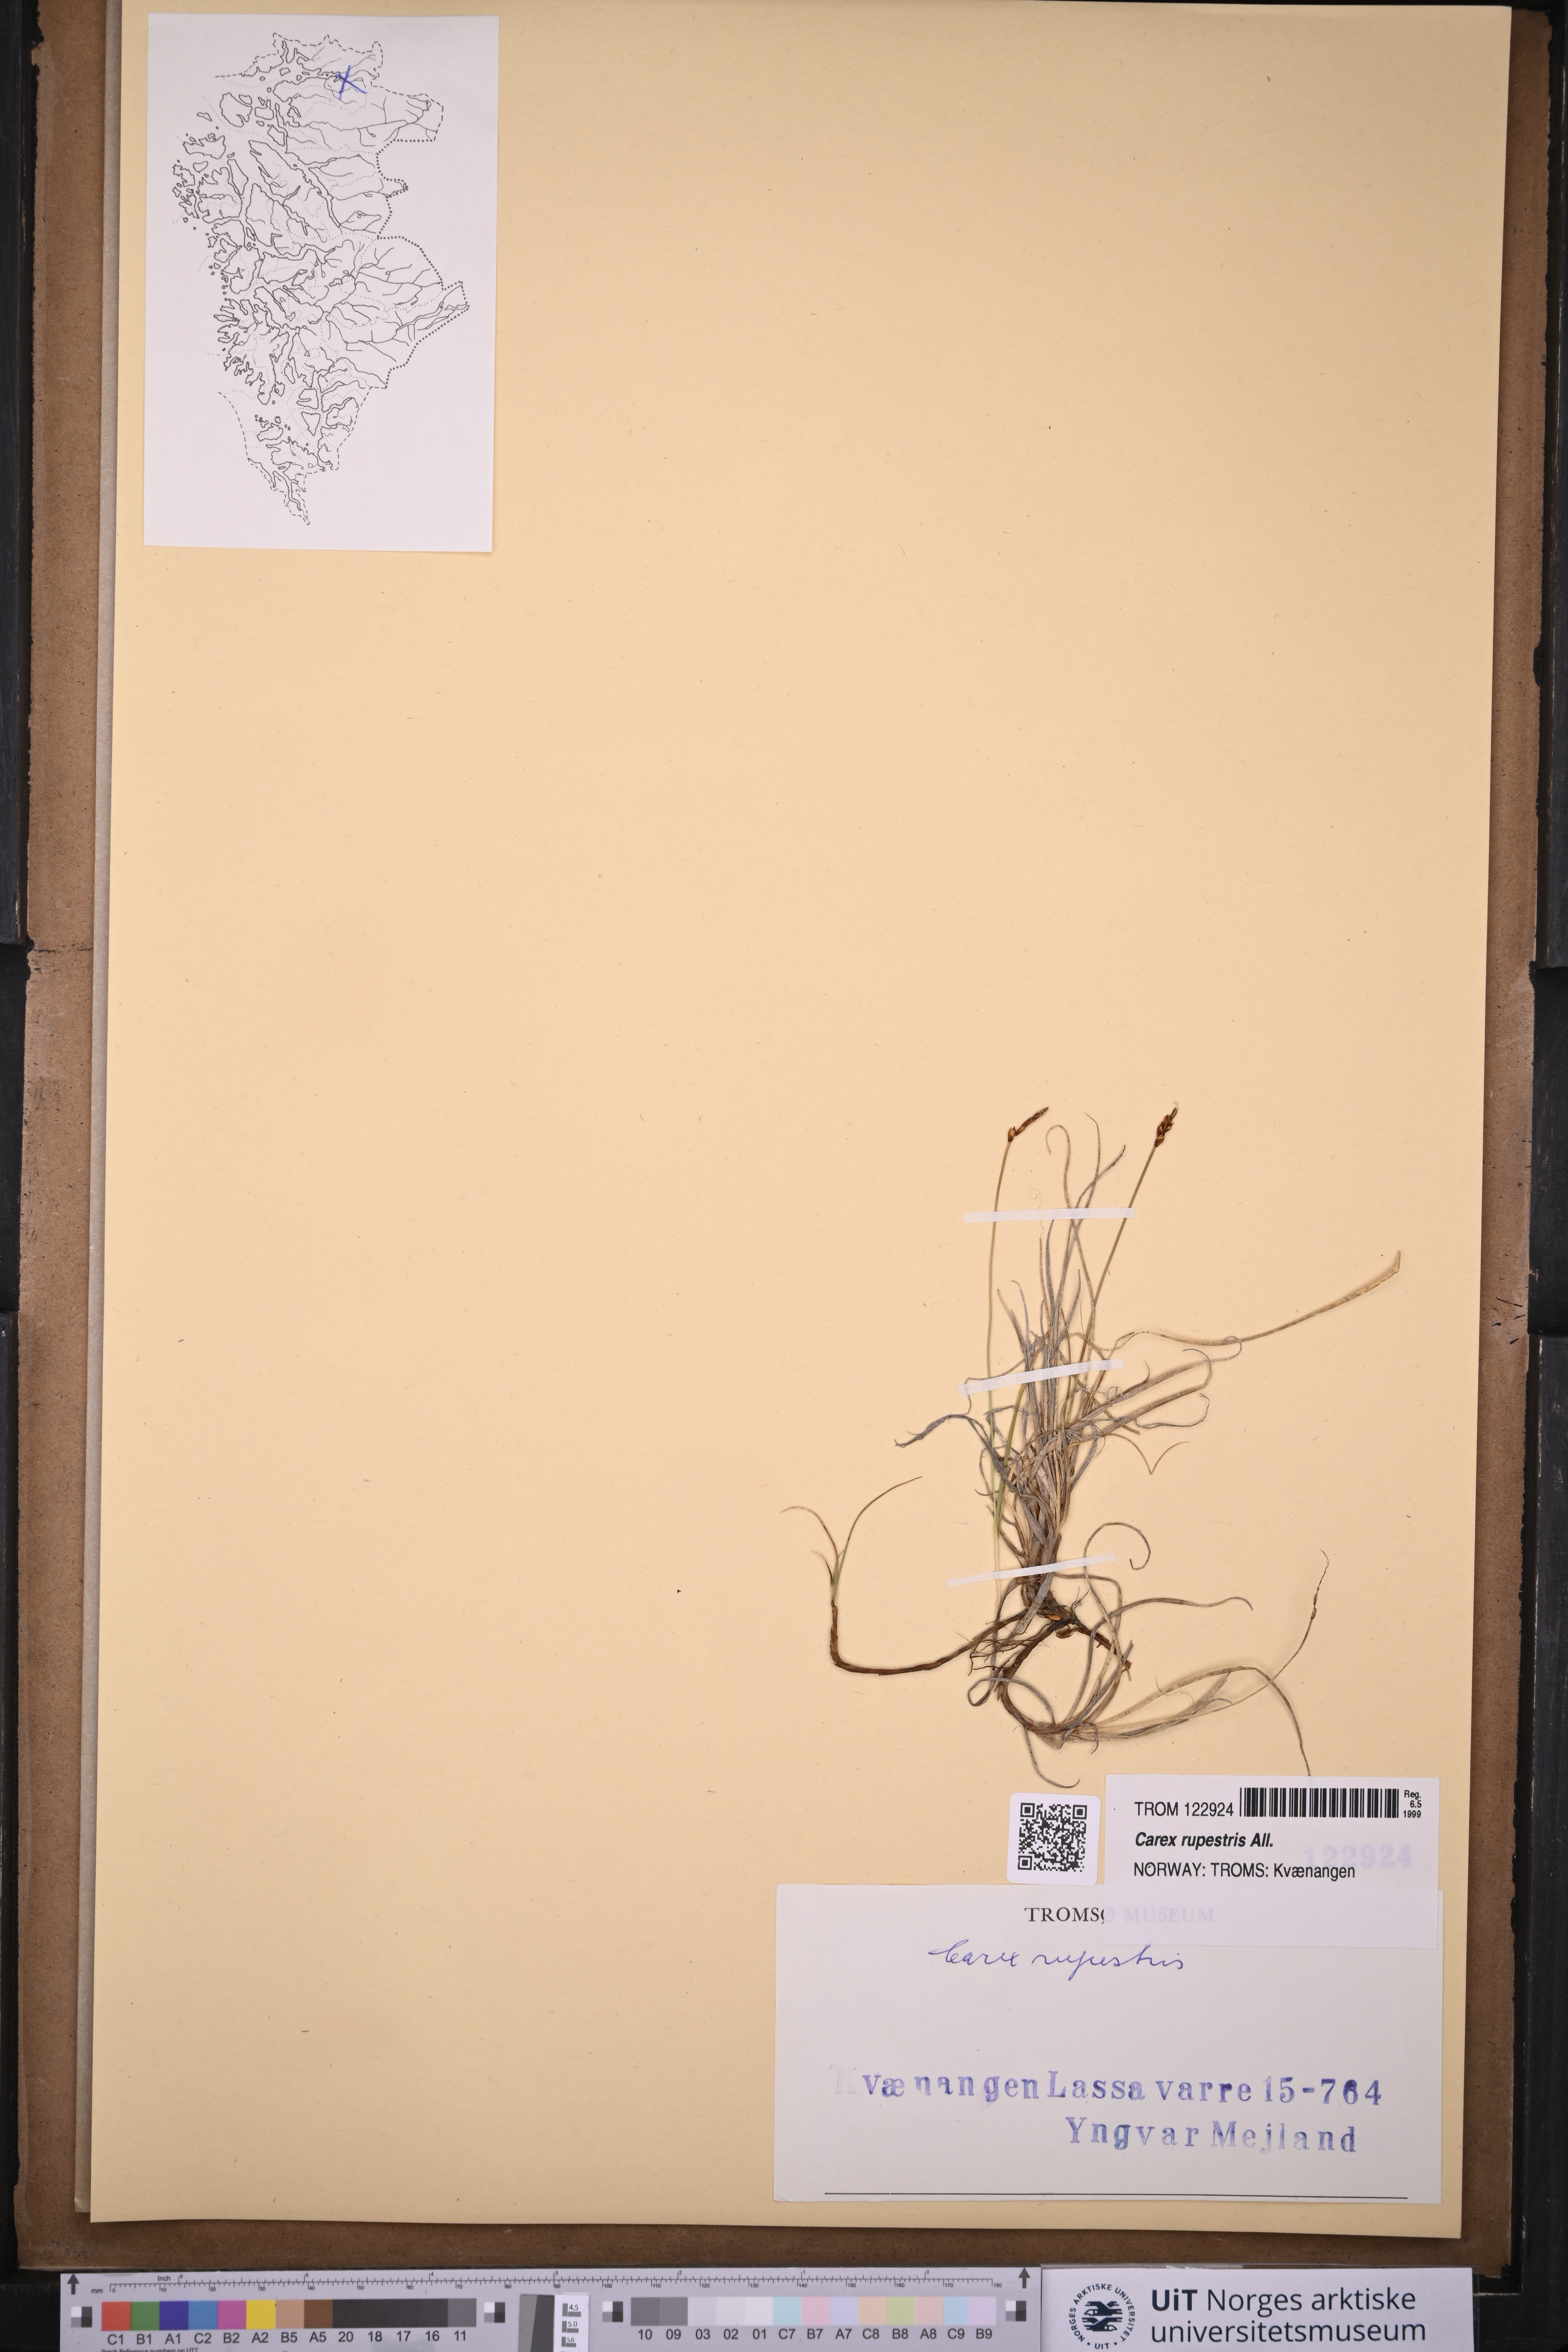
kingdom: Plantae
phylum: Tracheophyta
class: Liliopsida
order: Poales
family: Cyperaceae
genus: Carex
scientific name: Carex rupestris
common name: Rock sedge
